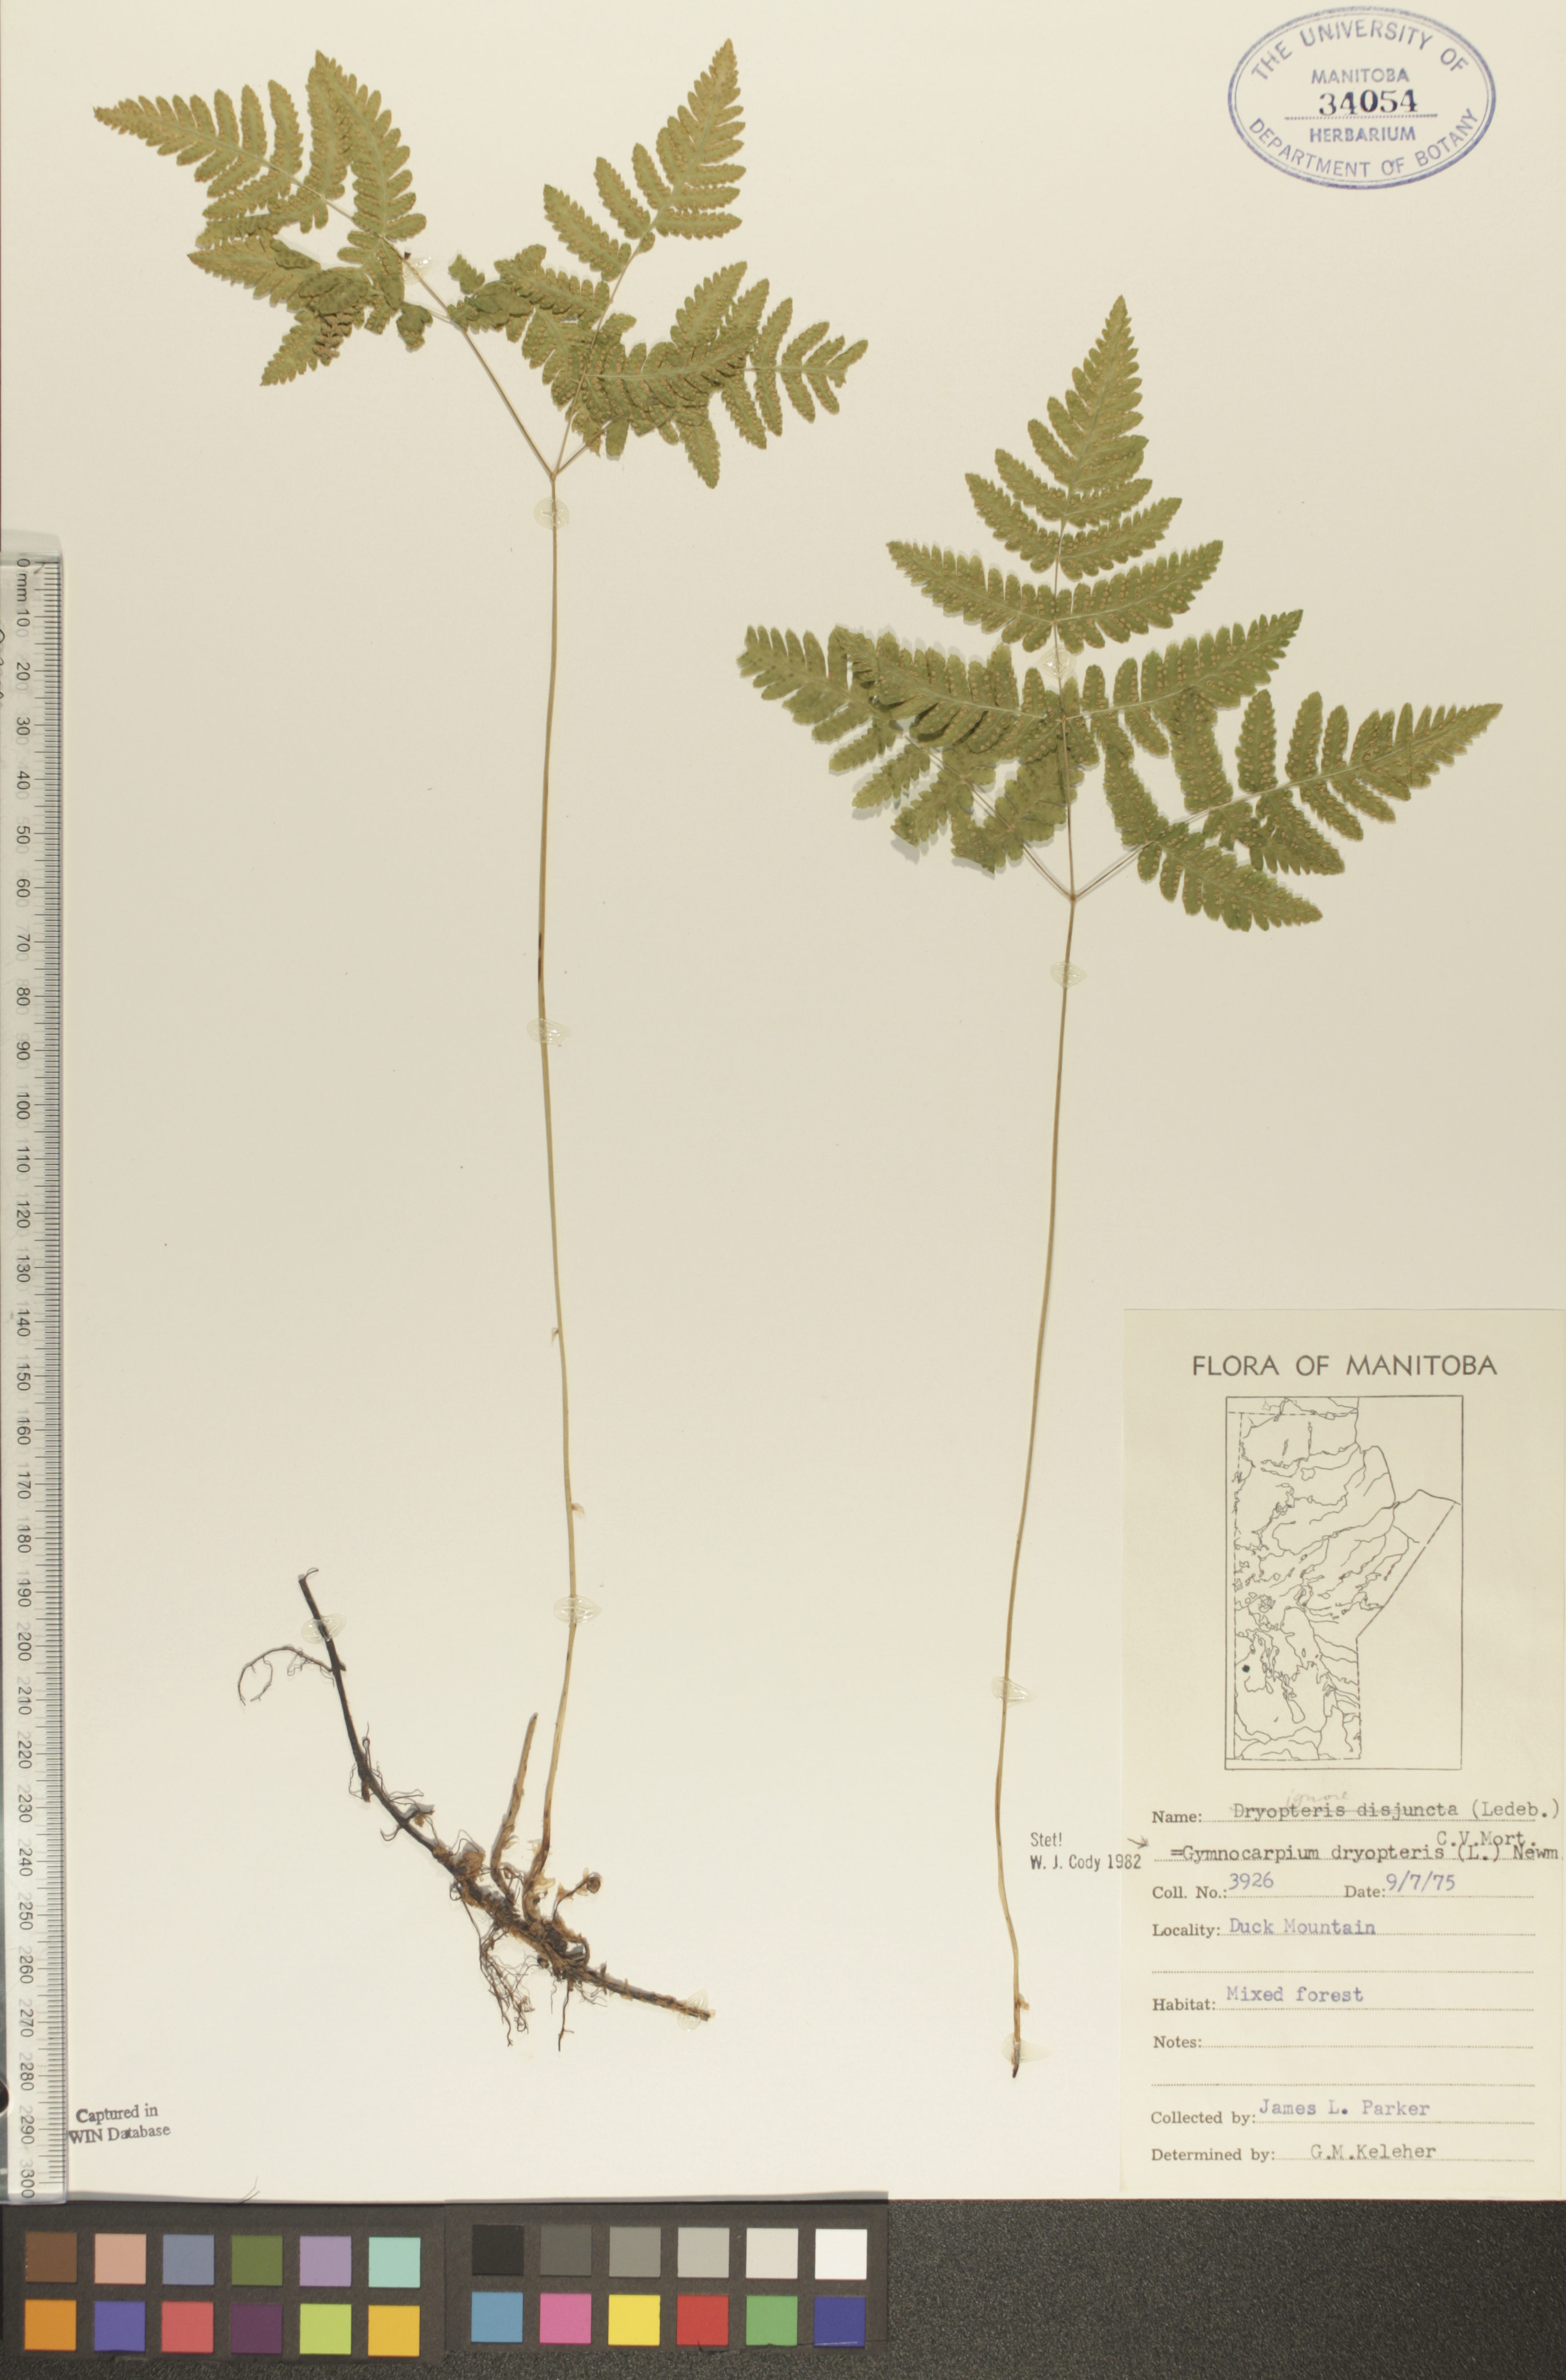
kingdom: Plantae
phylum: Tracheophyta
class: Polypodiopsida
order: Polypodiales
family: Cystopteridaceae
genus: Gymnocarpium
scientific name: Gymnocarpium dryopteris
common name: Oak fern
